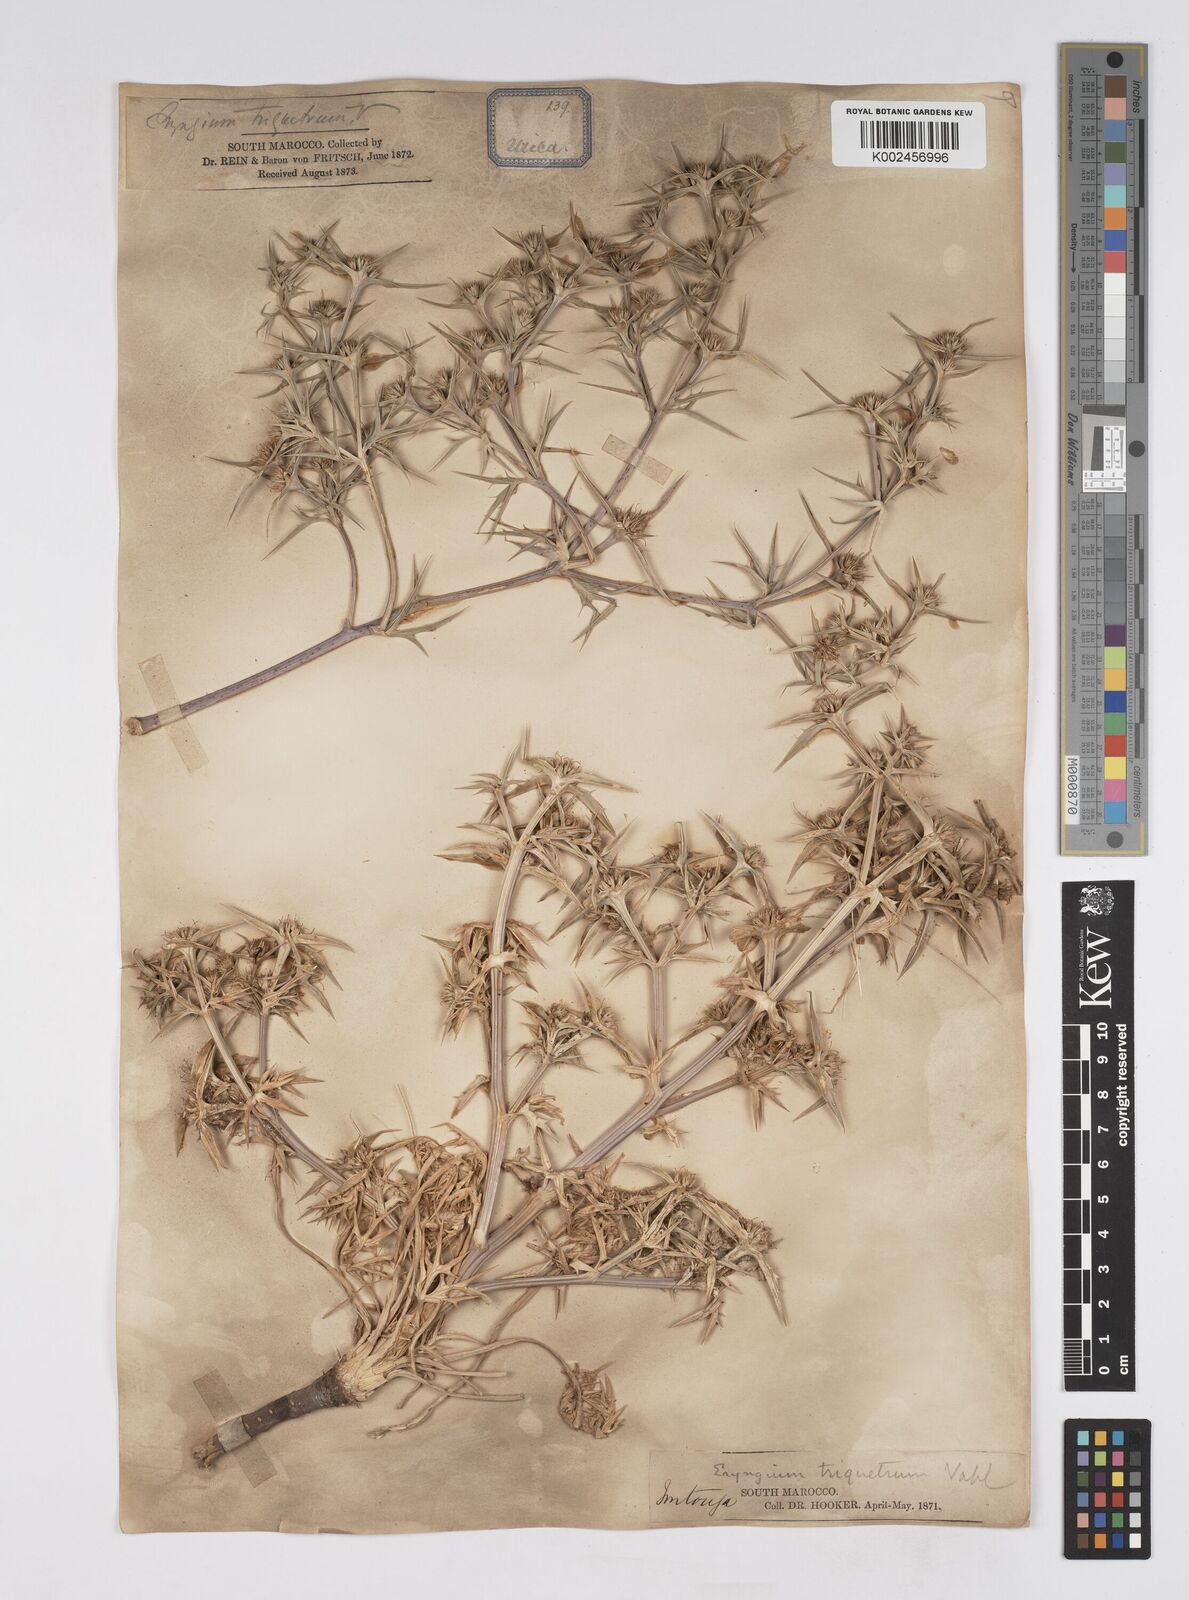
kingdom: Plantae
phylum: Tracheophyta
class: Magnoliopsida
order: Apiales
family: Apiaceae
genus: Eryngium
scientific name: Eryngium
